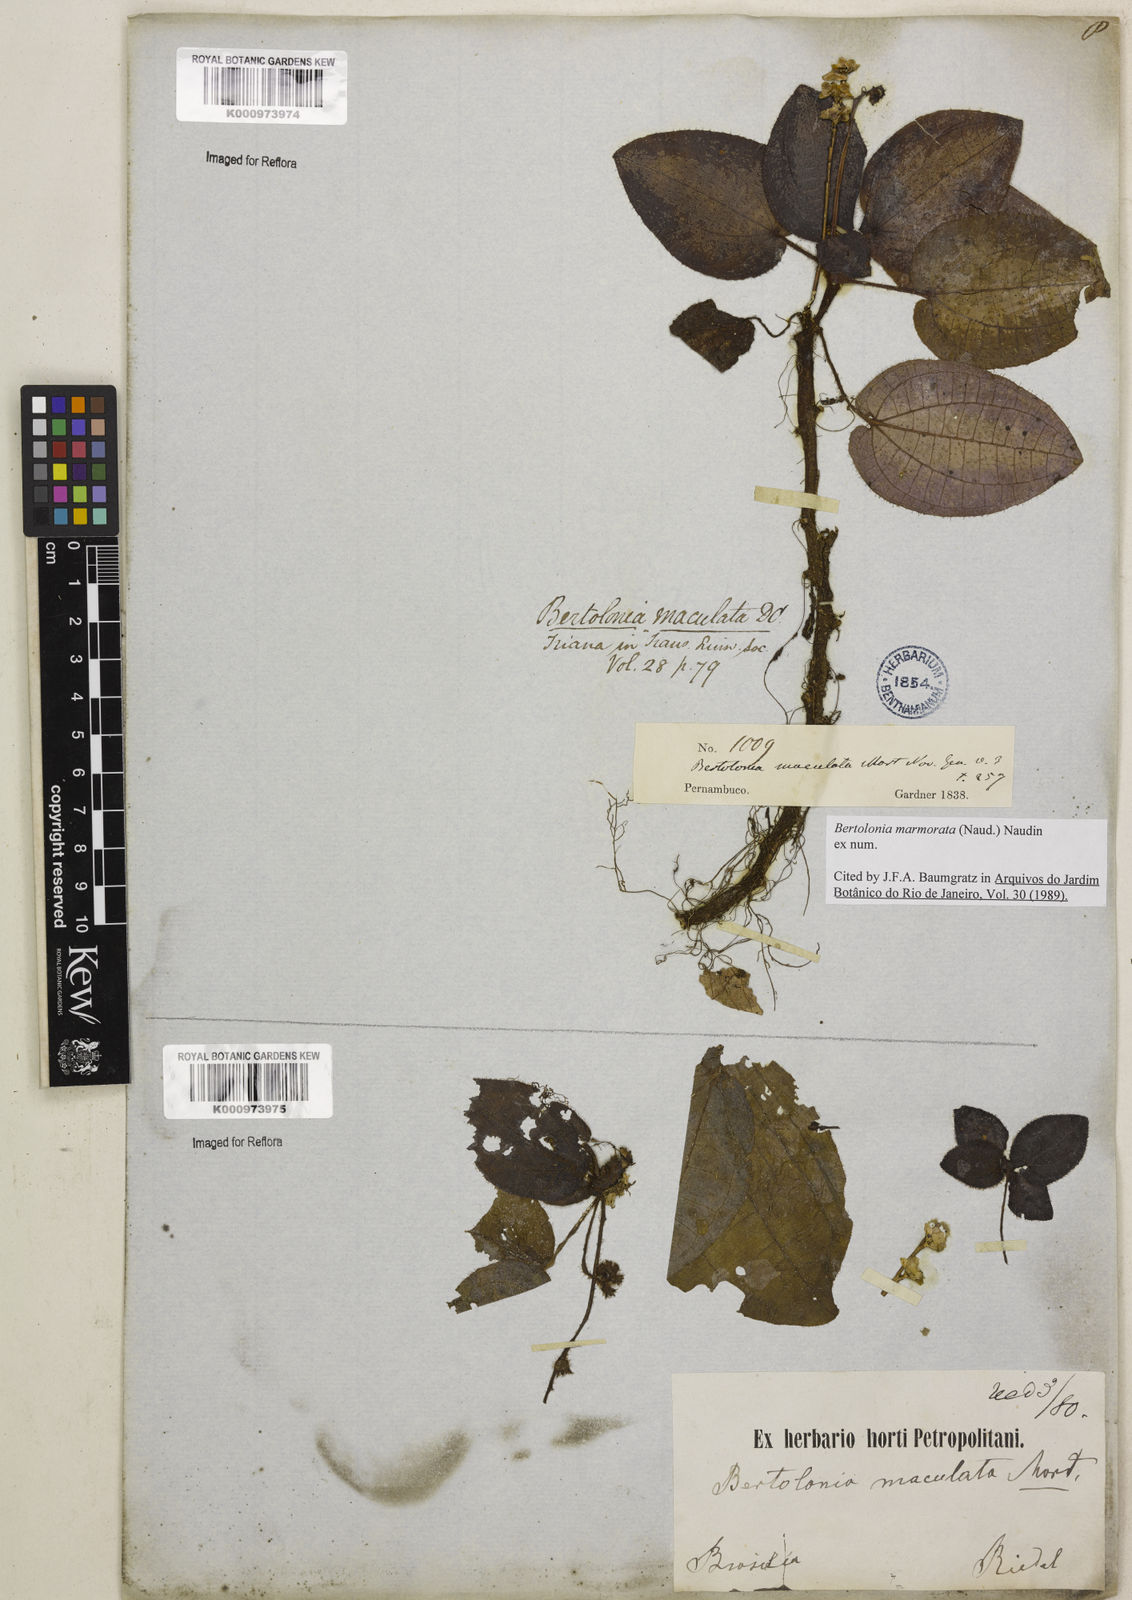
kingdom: Plantae
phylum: Tracheophyta
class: Magnoliopsida
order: Myrtales
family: Melastomataceae
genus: Bertolonia
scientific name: Bertolonia marmorata
